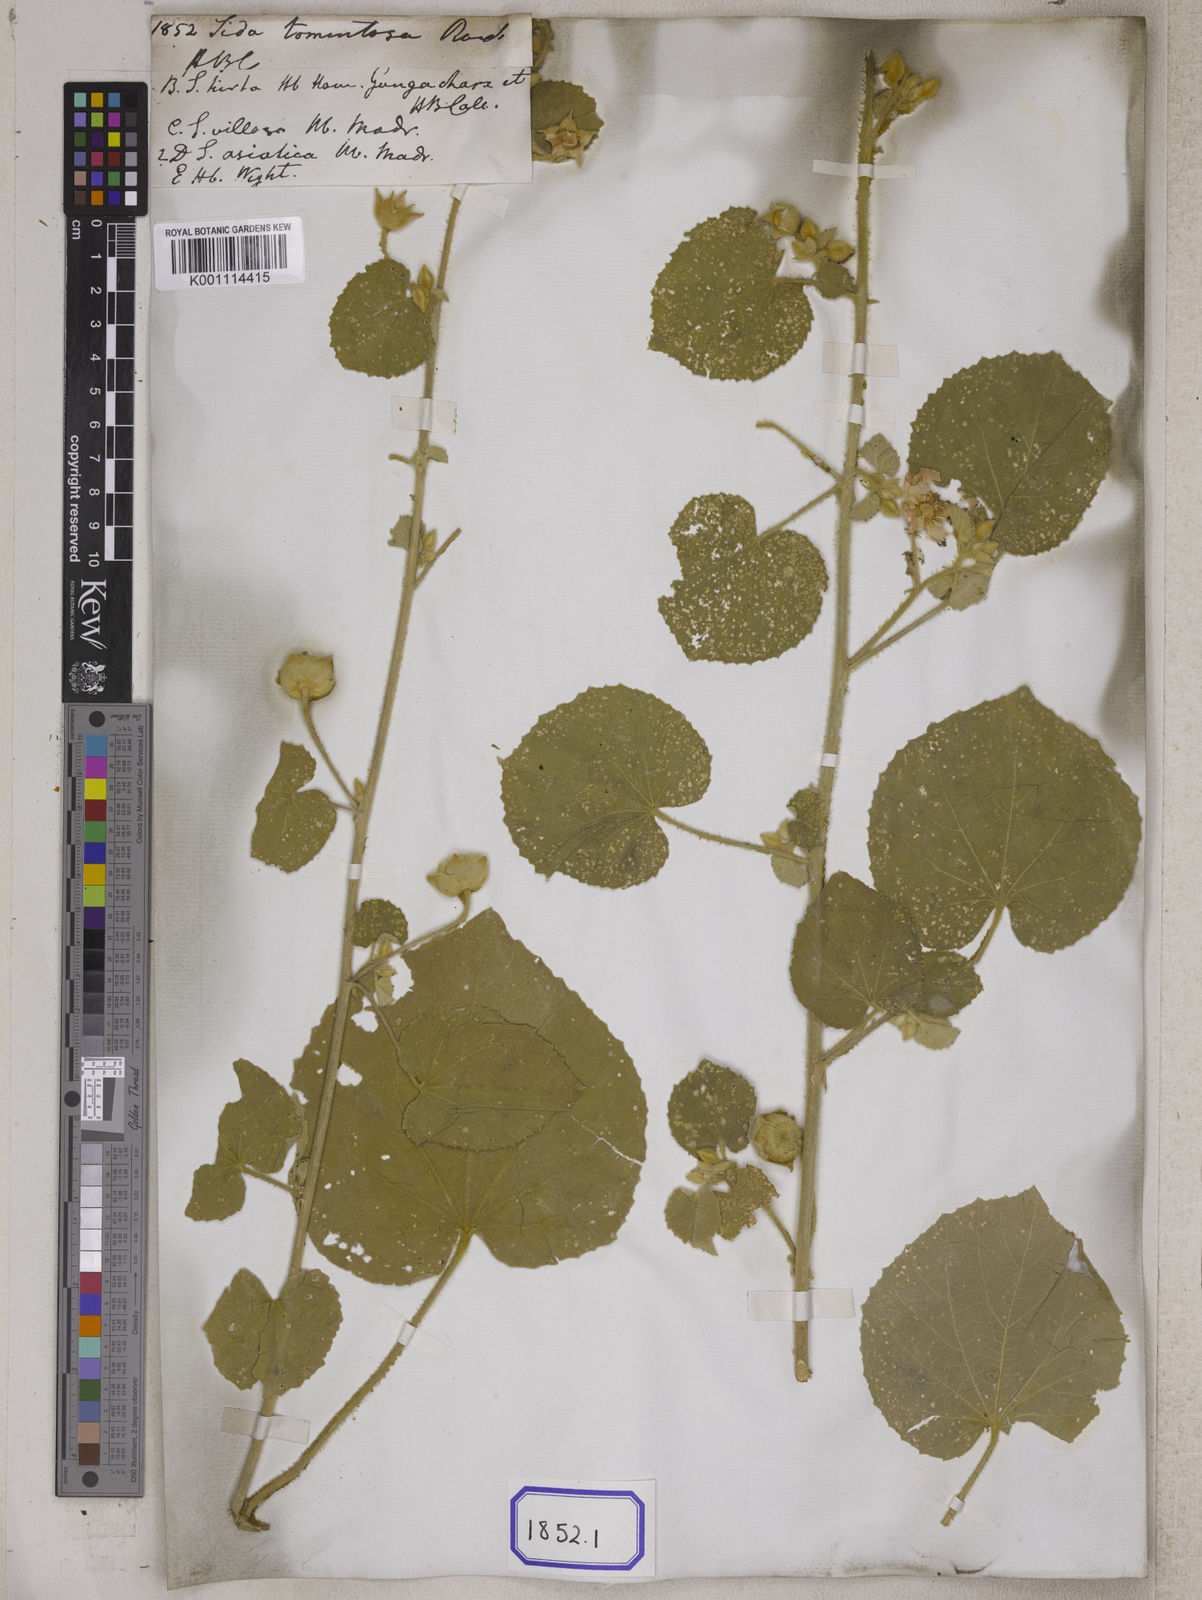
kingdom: Plantae
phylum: Tracheophyta
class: Magnoliopsida
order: Malvales
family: Malvaceae
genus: Abutilon
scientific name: Abutilon pannosum
